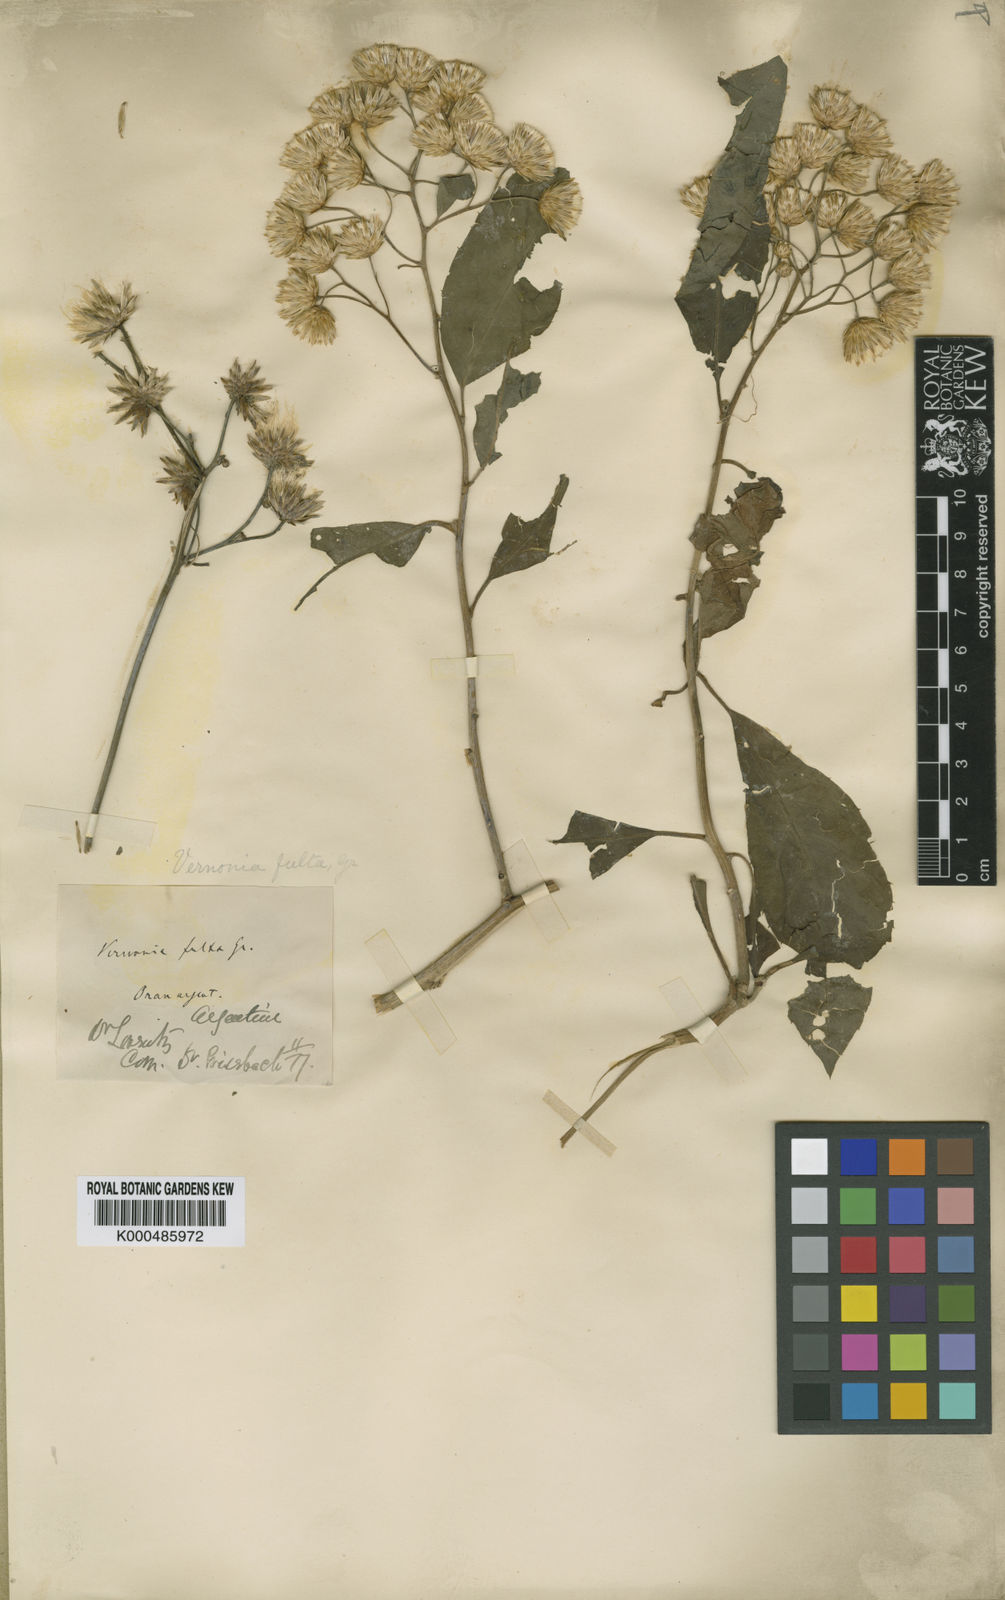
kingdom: Plantae
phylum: Tracheophyta
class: Magnoliopsida
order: Asterales
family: Asteraceae
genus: Quechualia
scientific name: Quechualia fulta
